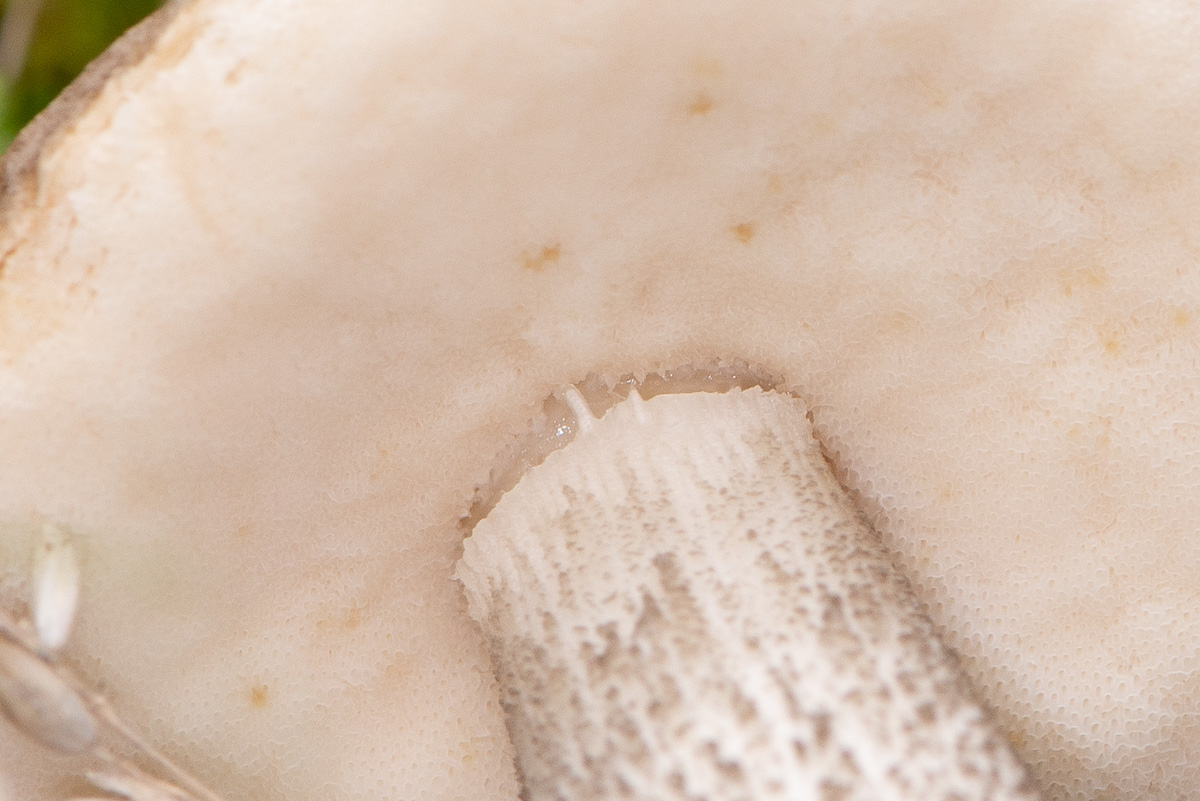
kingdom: Fungi
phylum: Basidiomycota
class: Agaricomycetes
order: Boletales
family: Boletaceae
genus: Leccinum
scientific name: Leccinum scabrum
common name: brun skælrørhat
